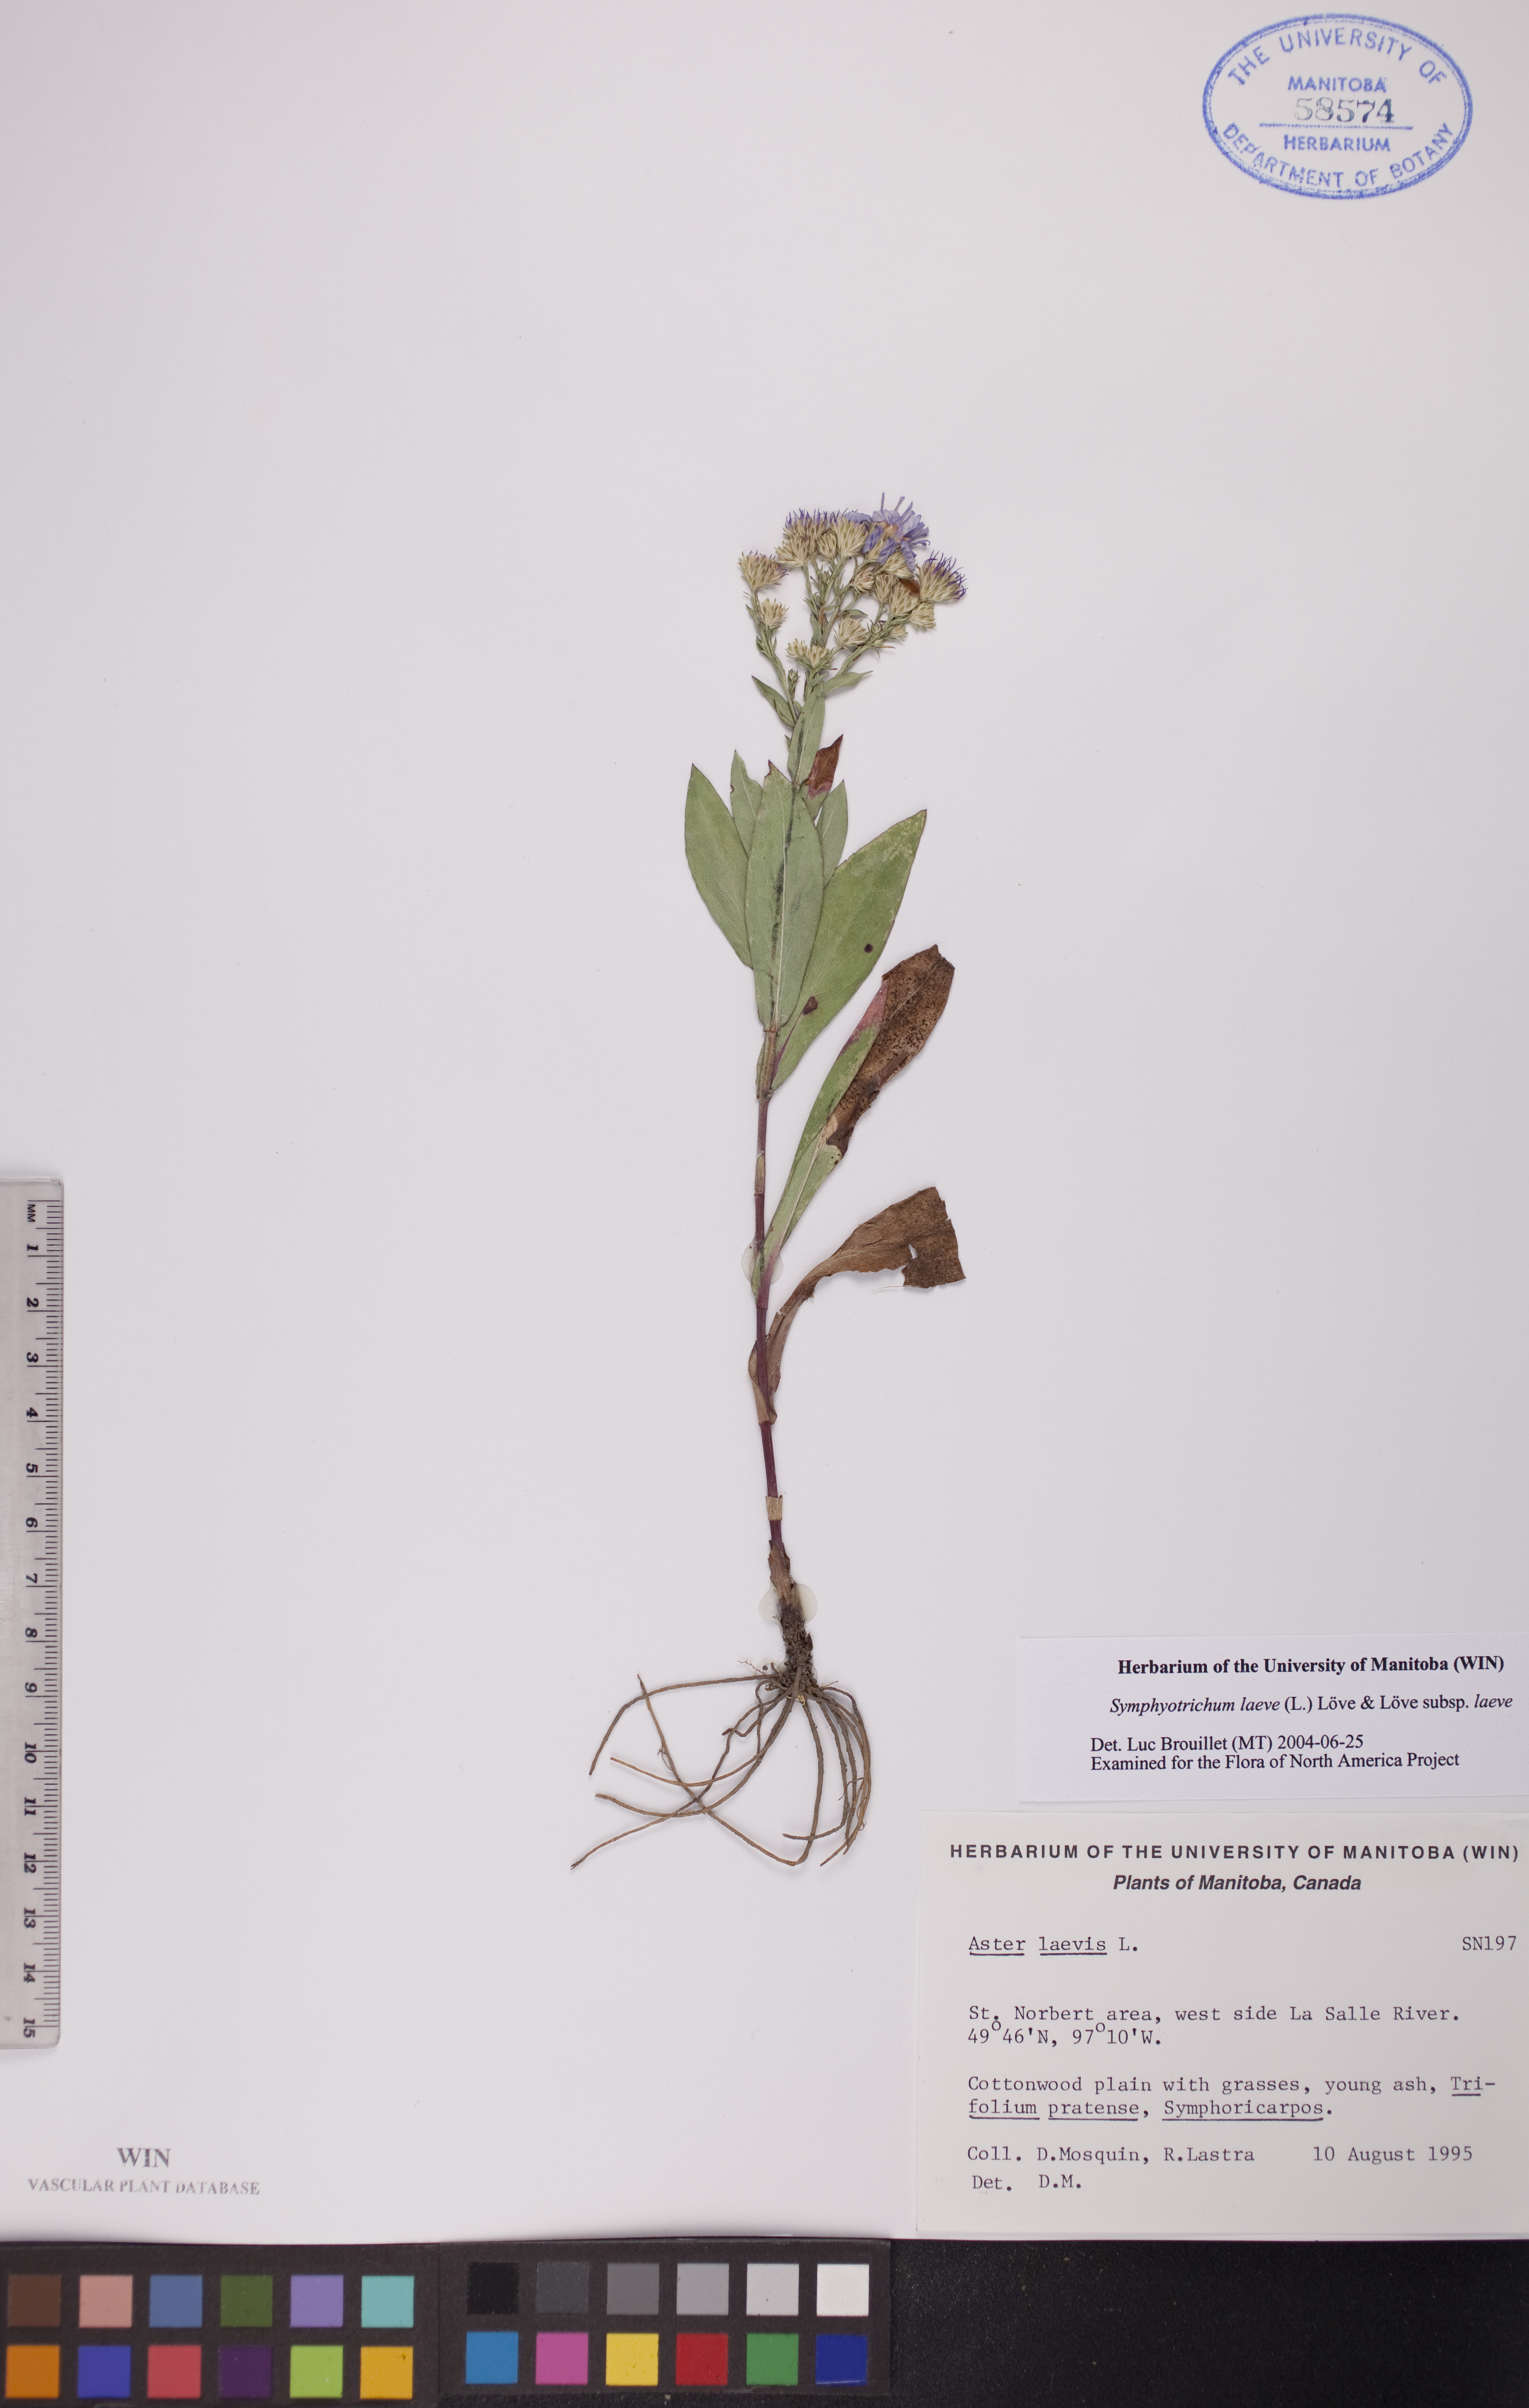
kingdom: Plantae
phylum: Tracheophyta
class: Magnoliopsida
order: Asterales
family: Asteraceae
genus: Symphyotrichum
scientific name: Symphyotrichum laeve
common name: Glaucous aster
